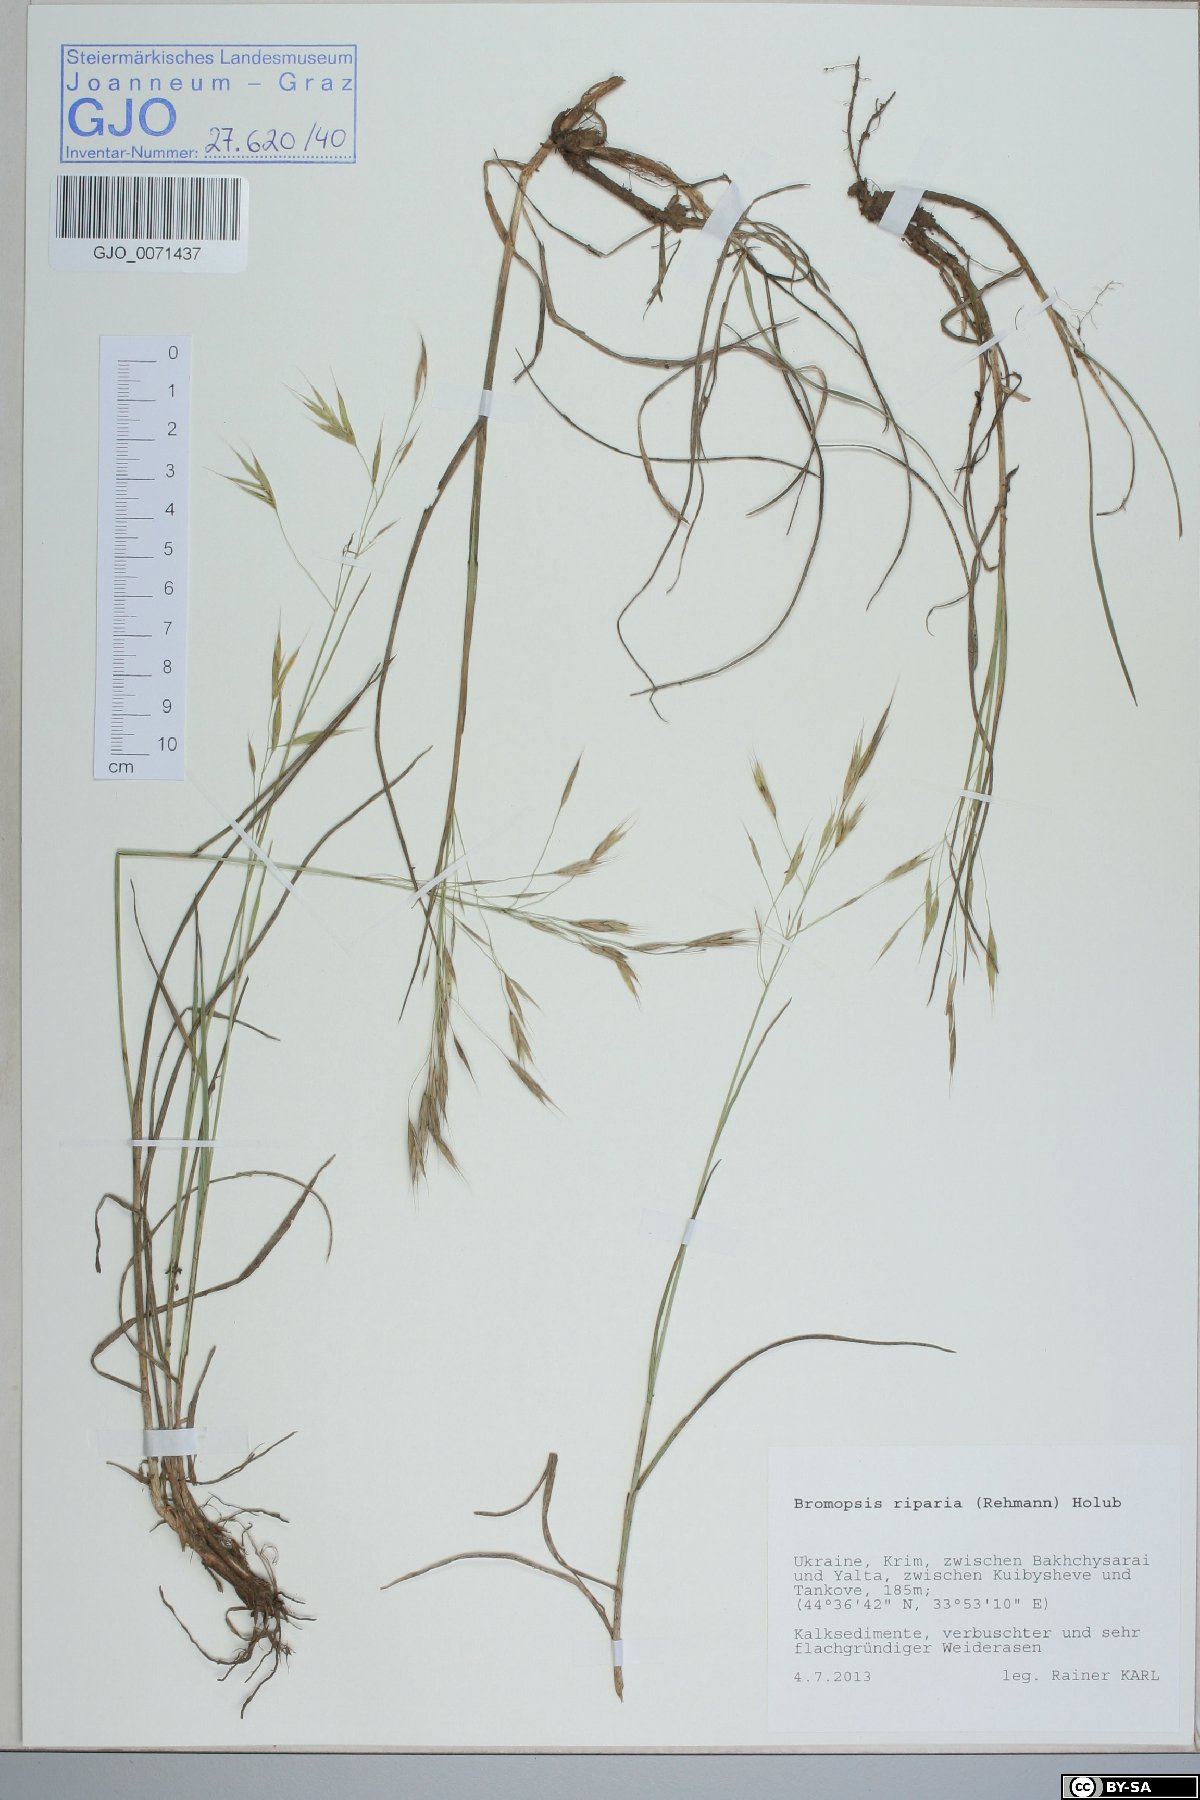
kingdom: Plantae
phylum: Tracheophyta
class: Liliopsida
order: Poales
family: Poaceae
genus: Bromus
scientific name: Bromus riparius
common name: Meadow brome
